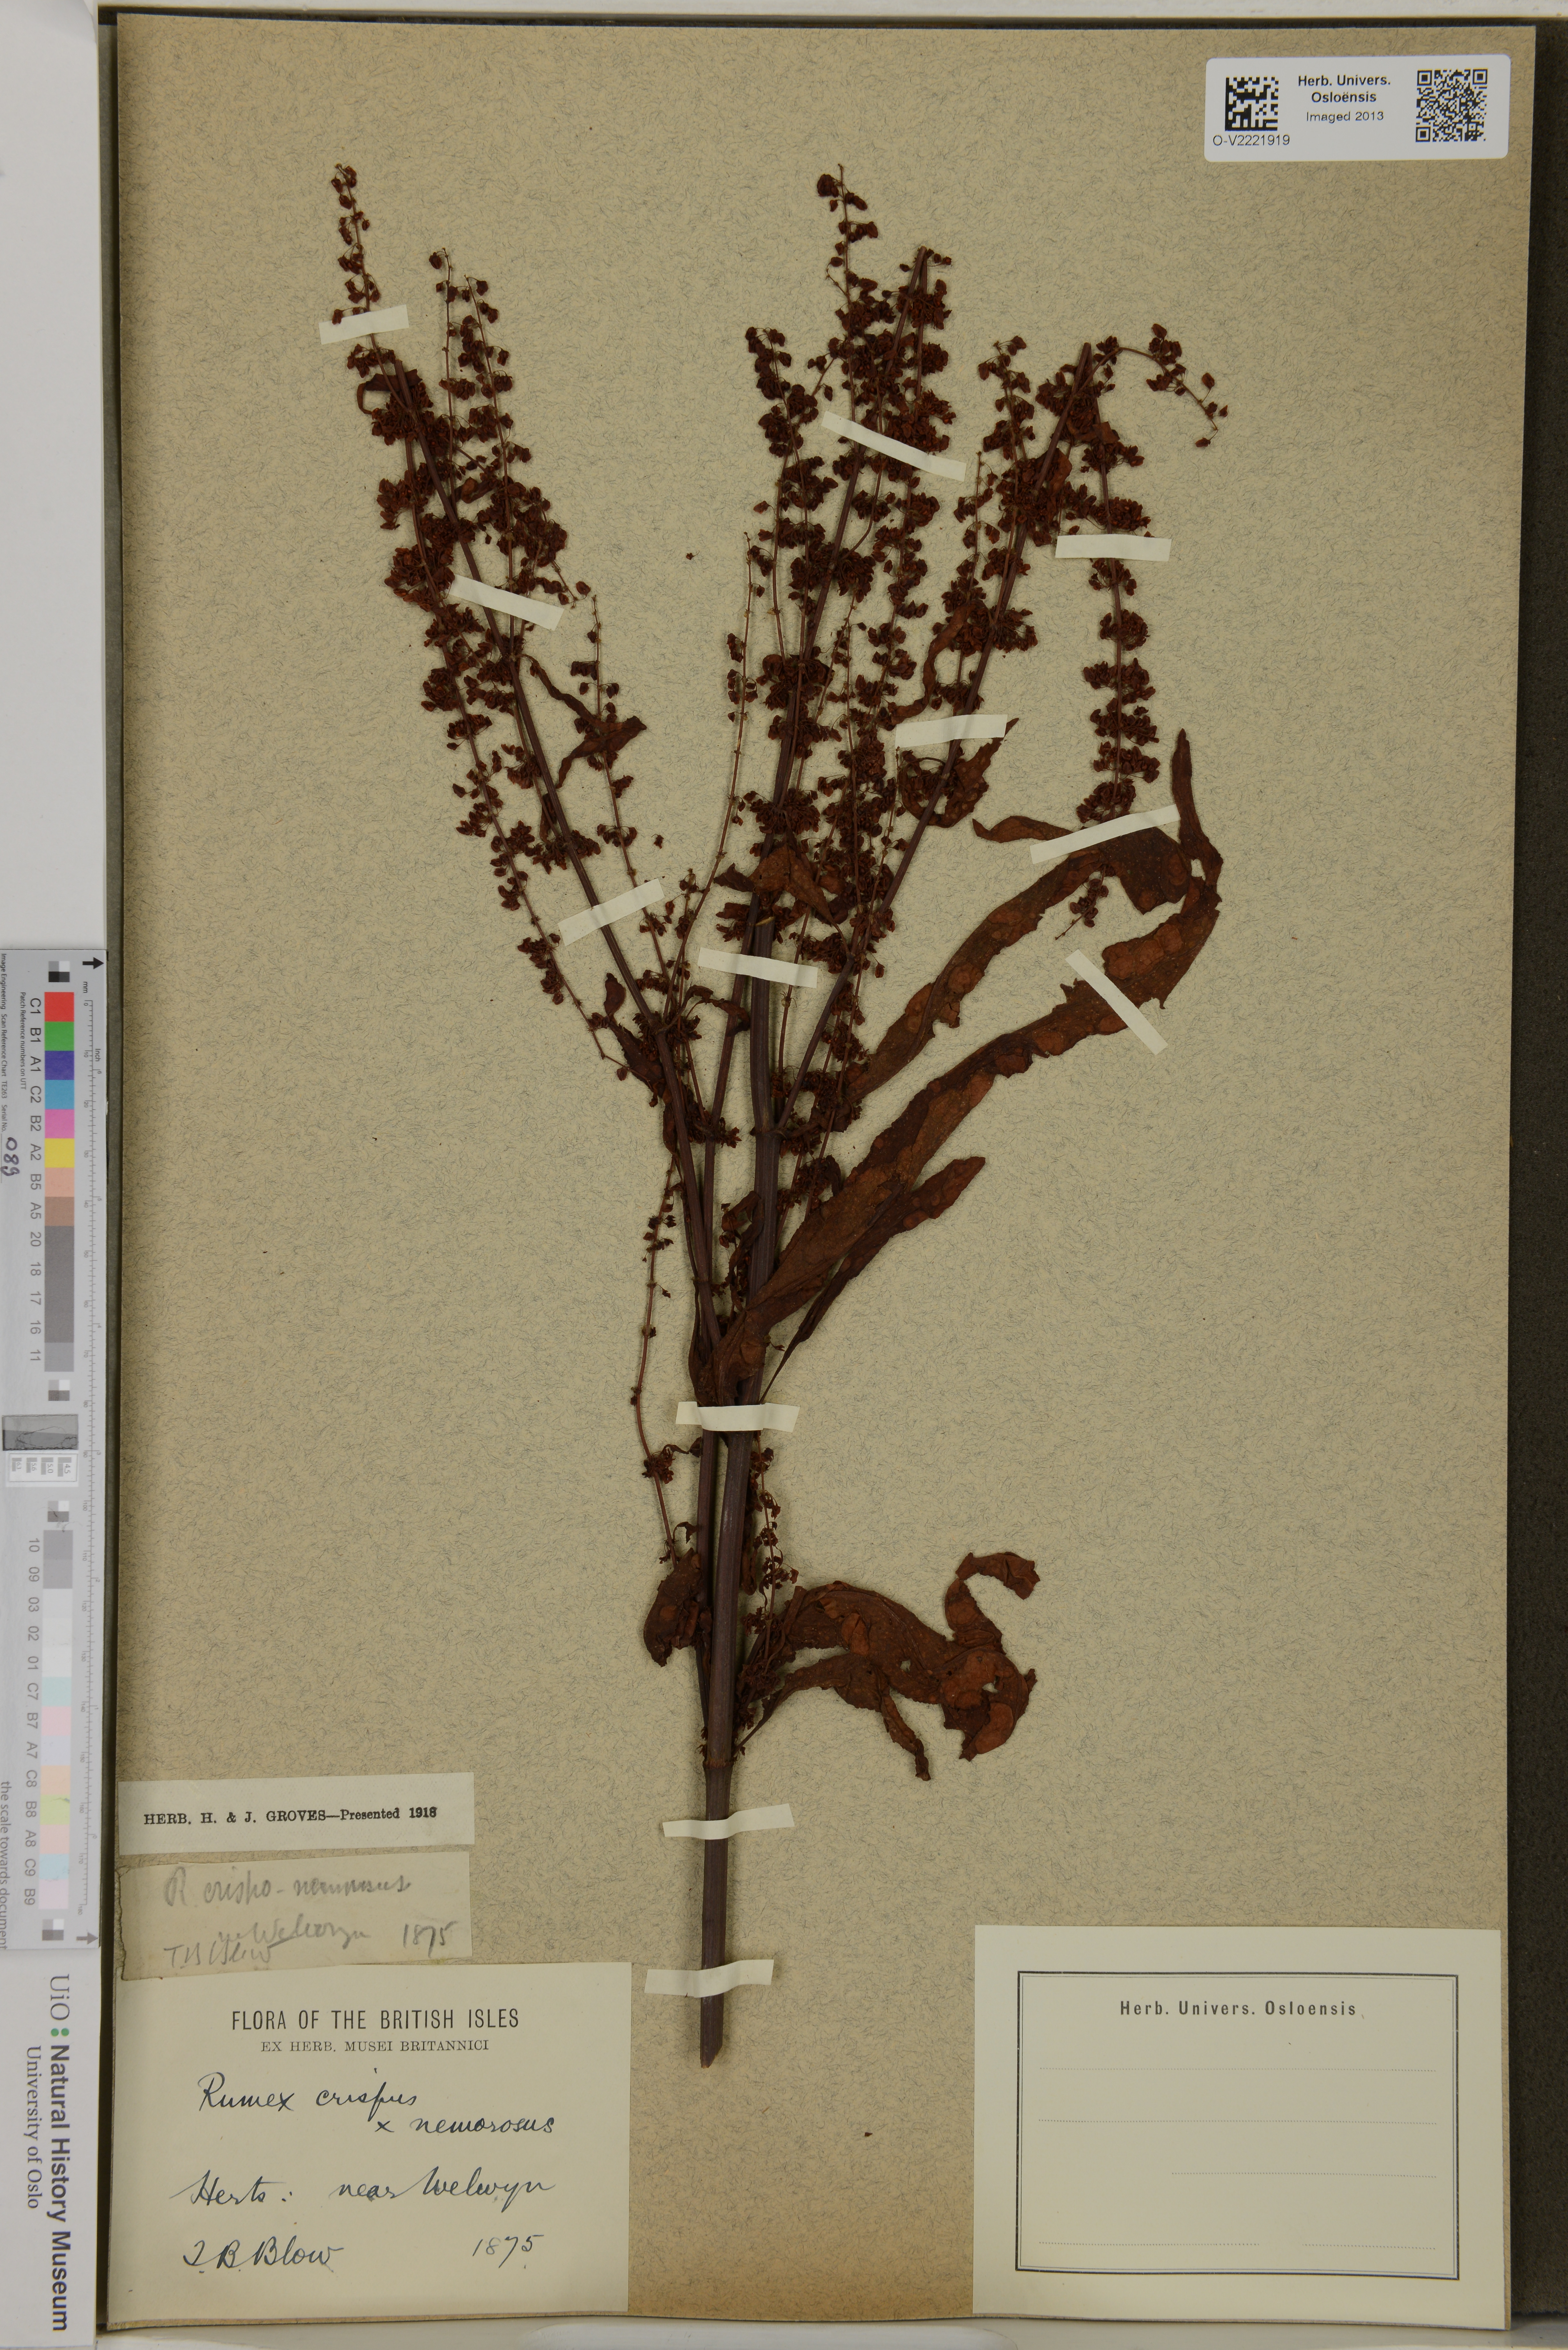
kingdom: Plantae
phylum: Tracheophyta
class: Magnoliopsida
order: Caryophyllales
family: Polygonaceae
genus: Rumex
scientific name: Rumex crispus
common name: Curled dock
